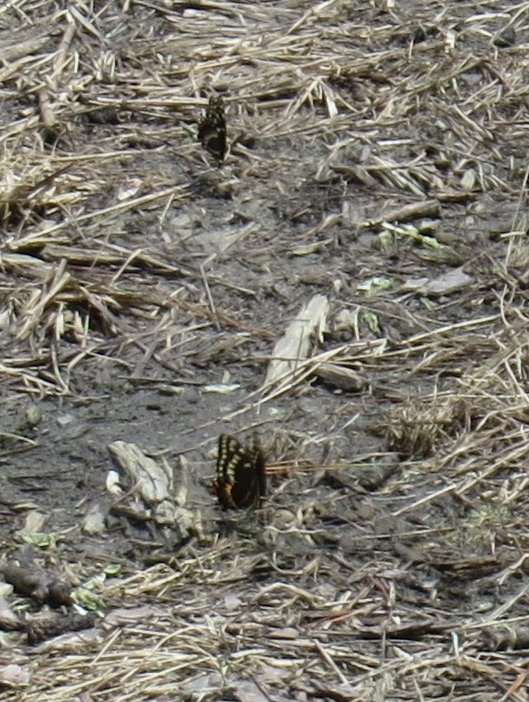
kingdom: Animalia
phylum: Arthropoda
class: Insecta
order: Lepidoptera
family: Papilionidae
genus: Pterourus
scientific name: Pterourus palamedes
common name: Palamedes Swallowtail
